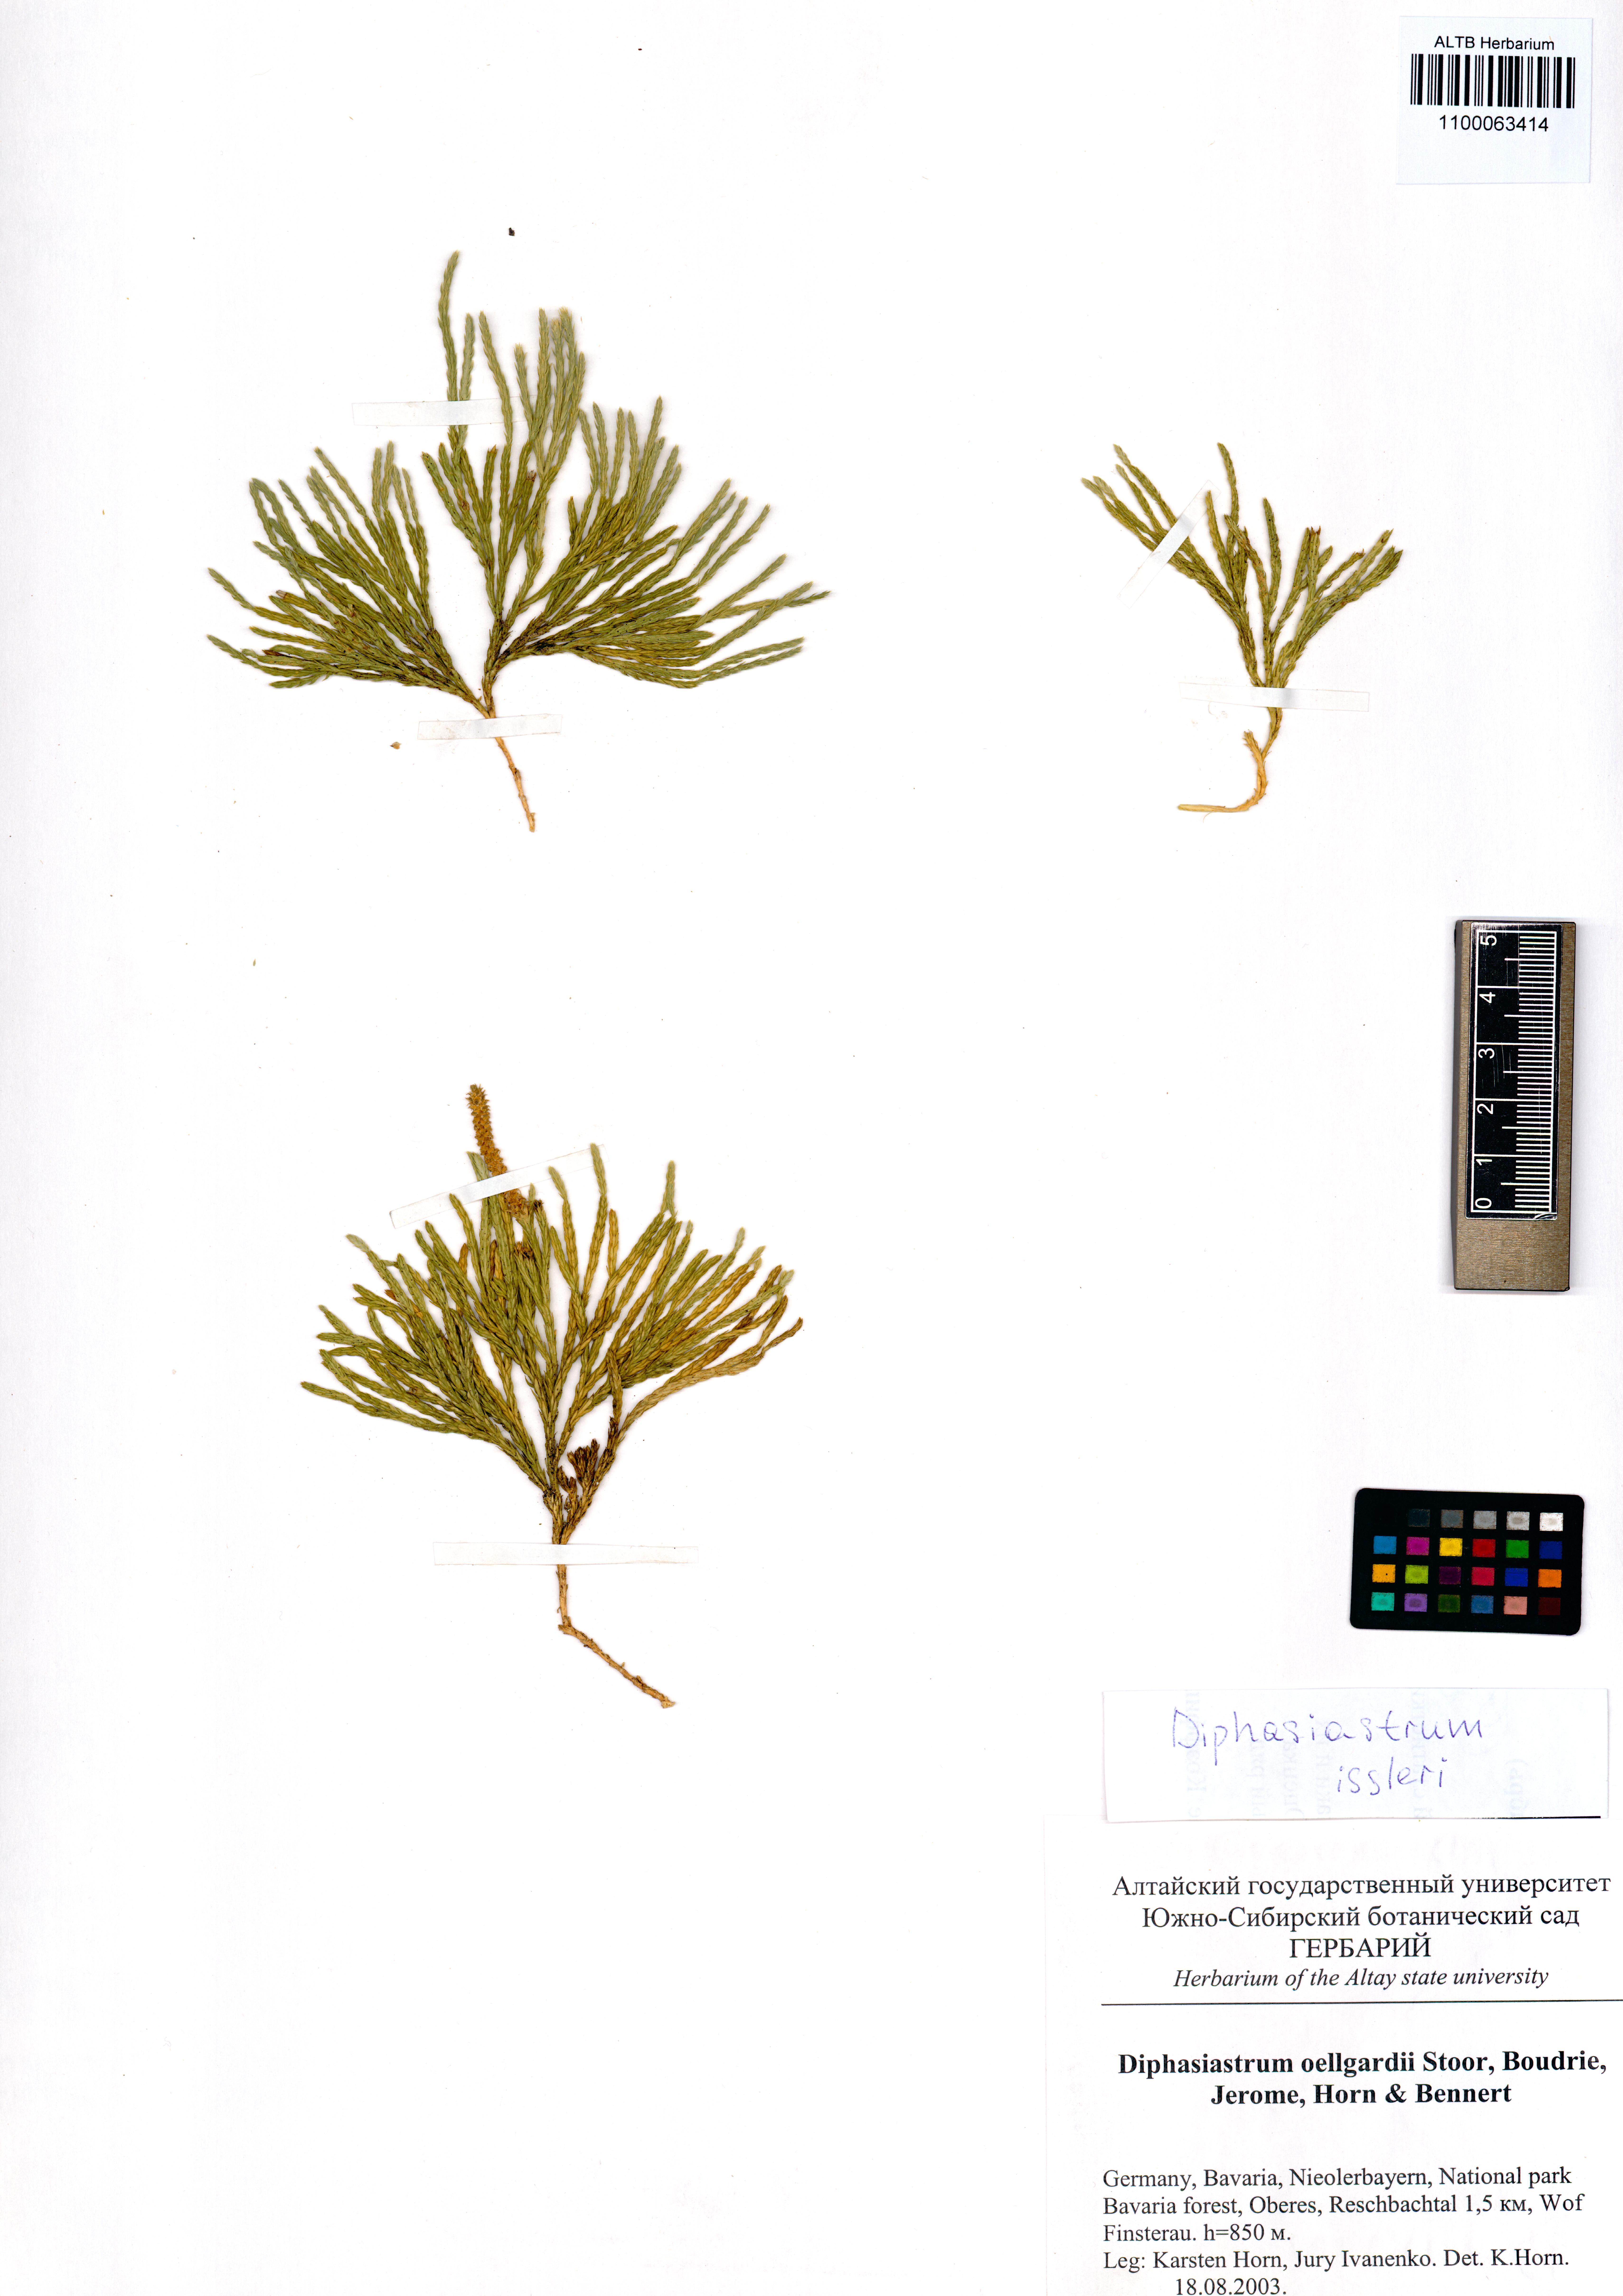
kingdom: Plantae
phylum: Tracheophyta
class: Lycopodiopsida
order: Lycopodiales
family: Lycopodiaceae
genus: Diphasiastrum
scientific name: Diphasiastrum issleri
